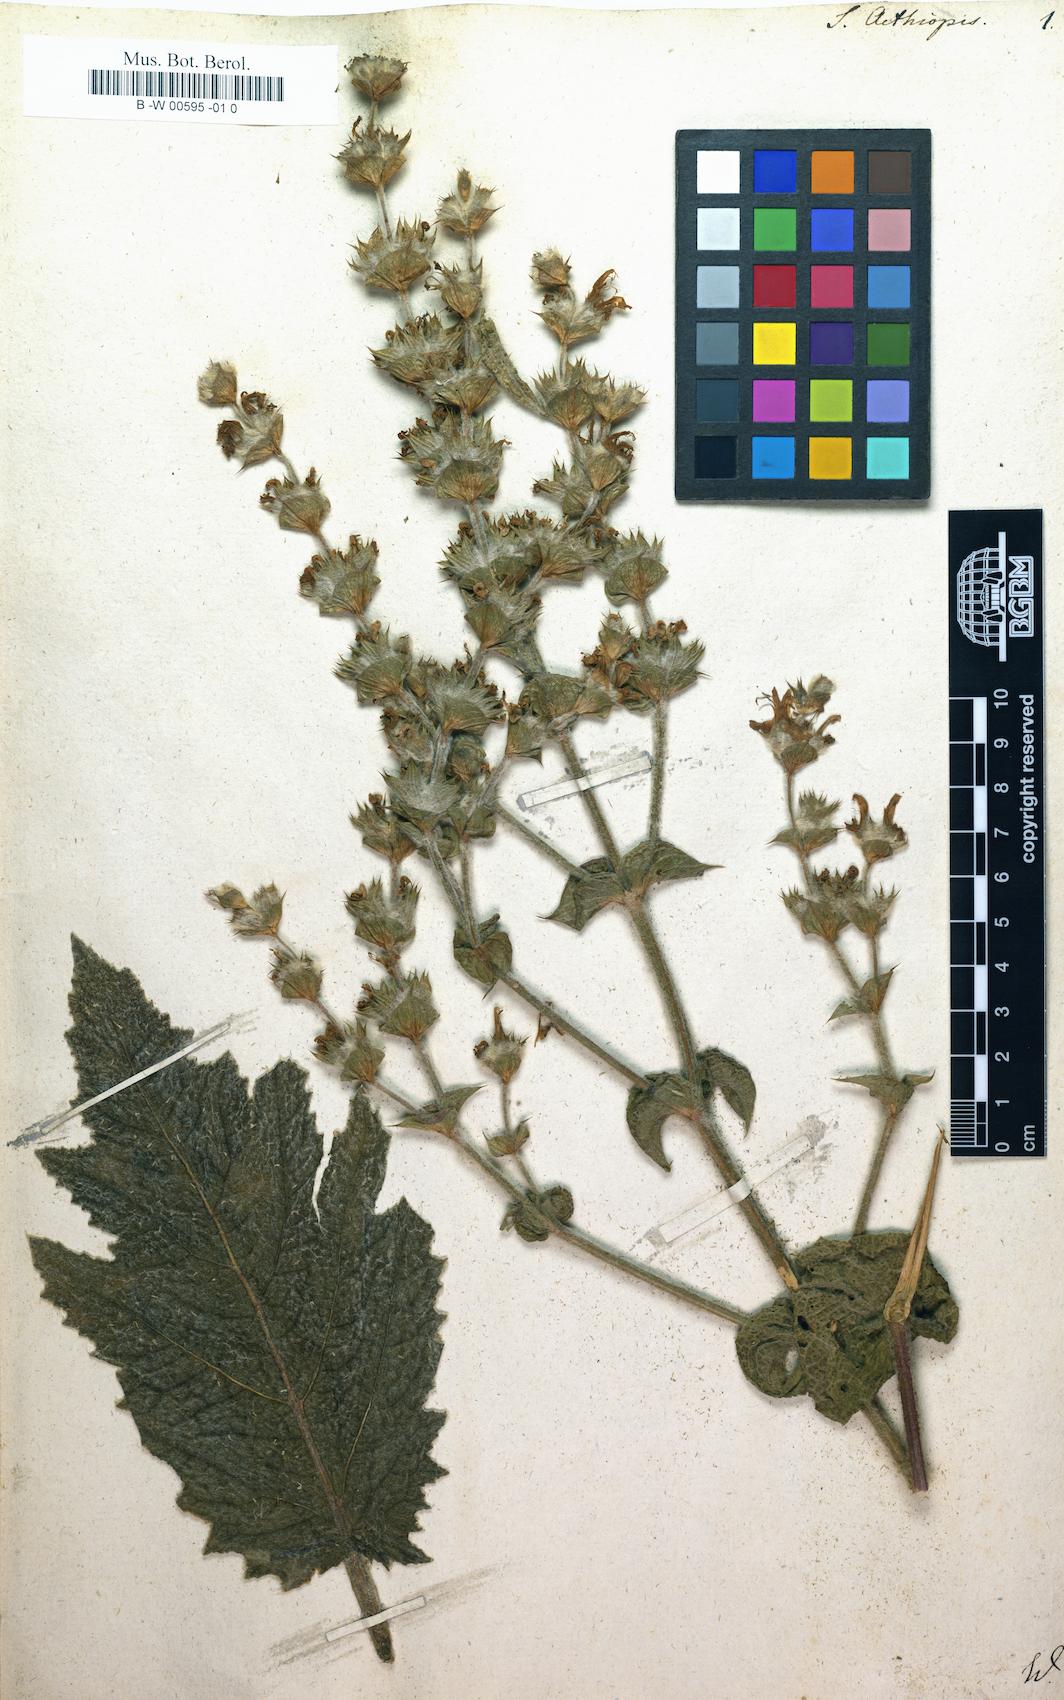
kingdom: Plantae
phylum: Tracheophyta
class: Magnoliopsida
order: Lamiales
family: Lamiaceae
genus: Salvia
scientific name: Salvia aethiopis
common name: Mediterranean sage
